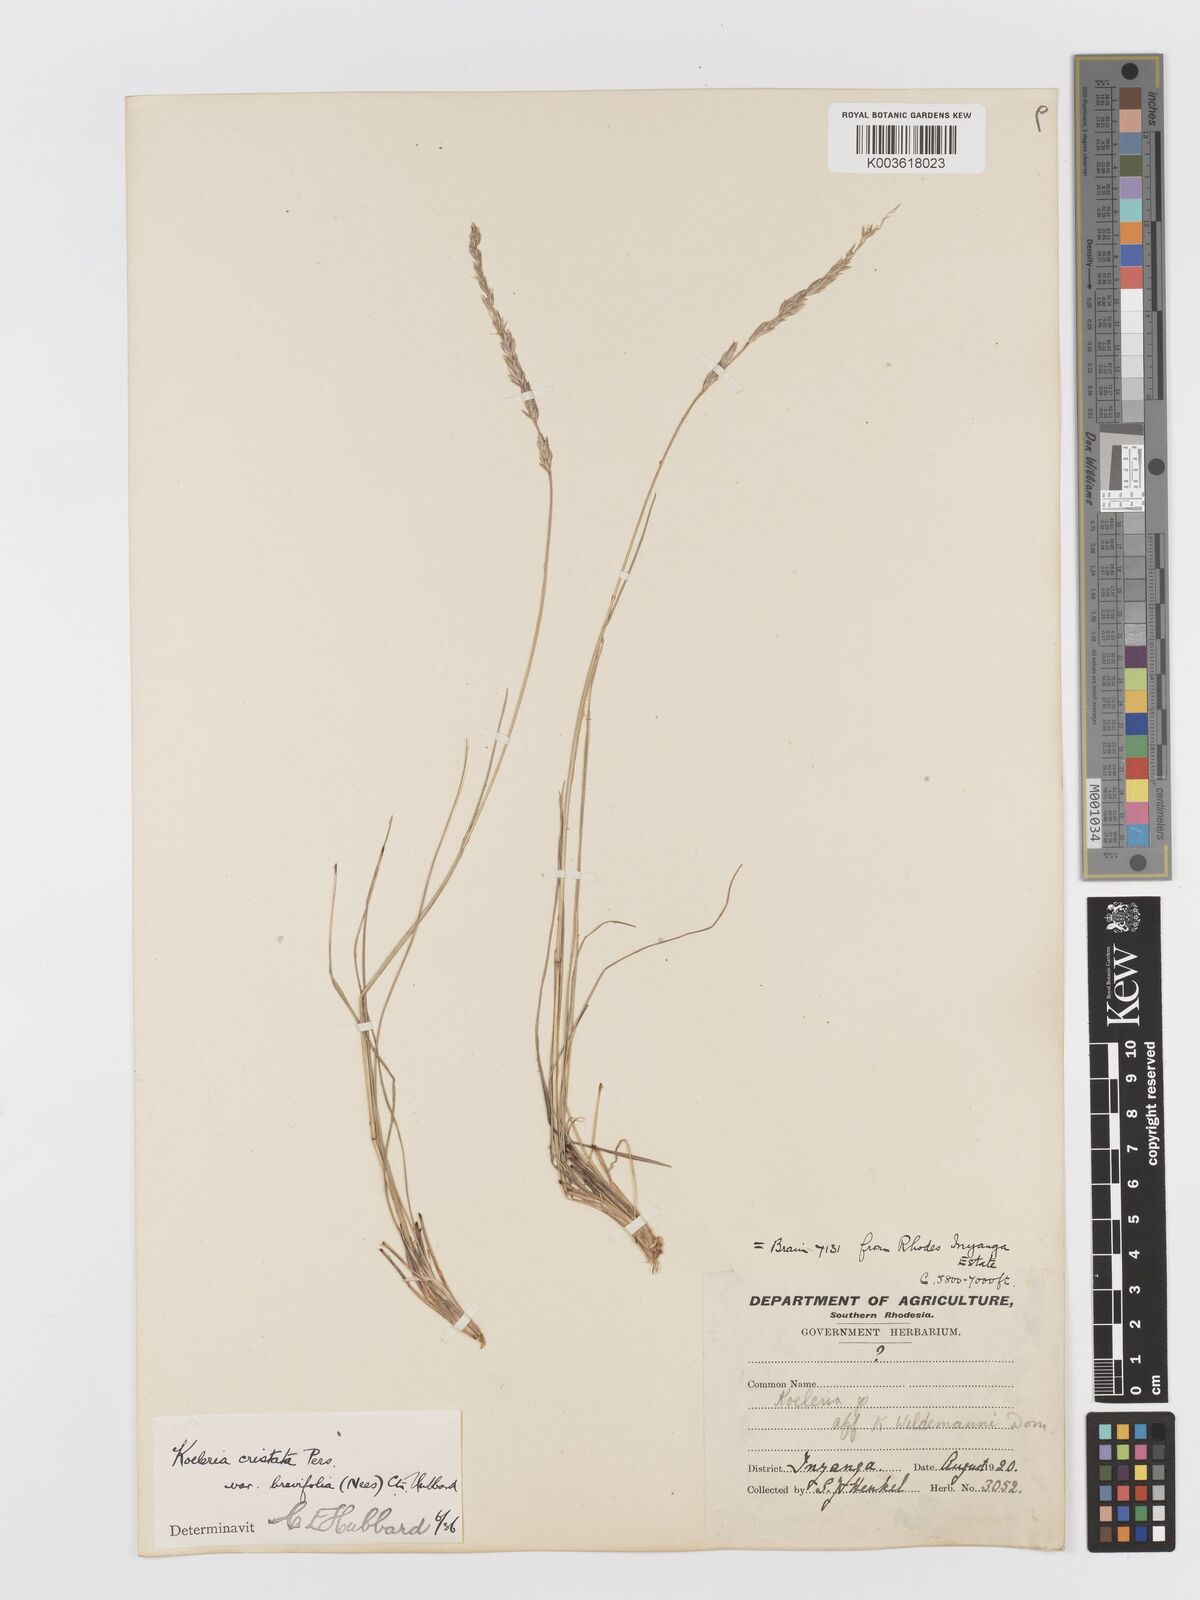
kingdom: Plantae
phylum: Tracheophyta
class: Liliopsida
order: Poales
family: Poaceae
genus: Koeleria
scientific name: Koeleria capensis
